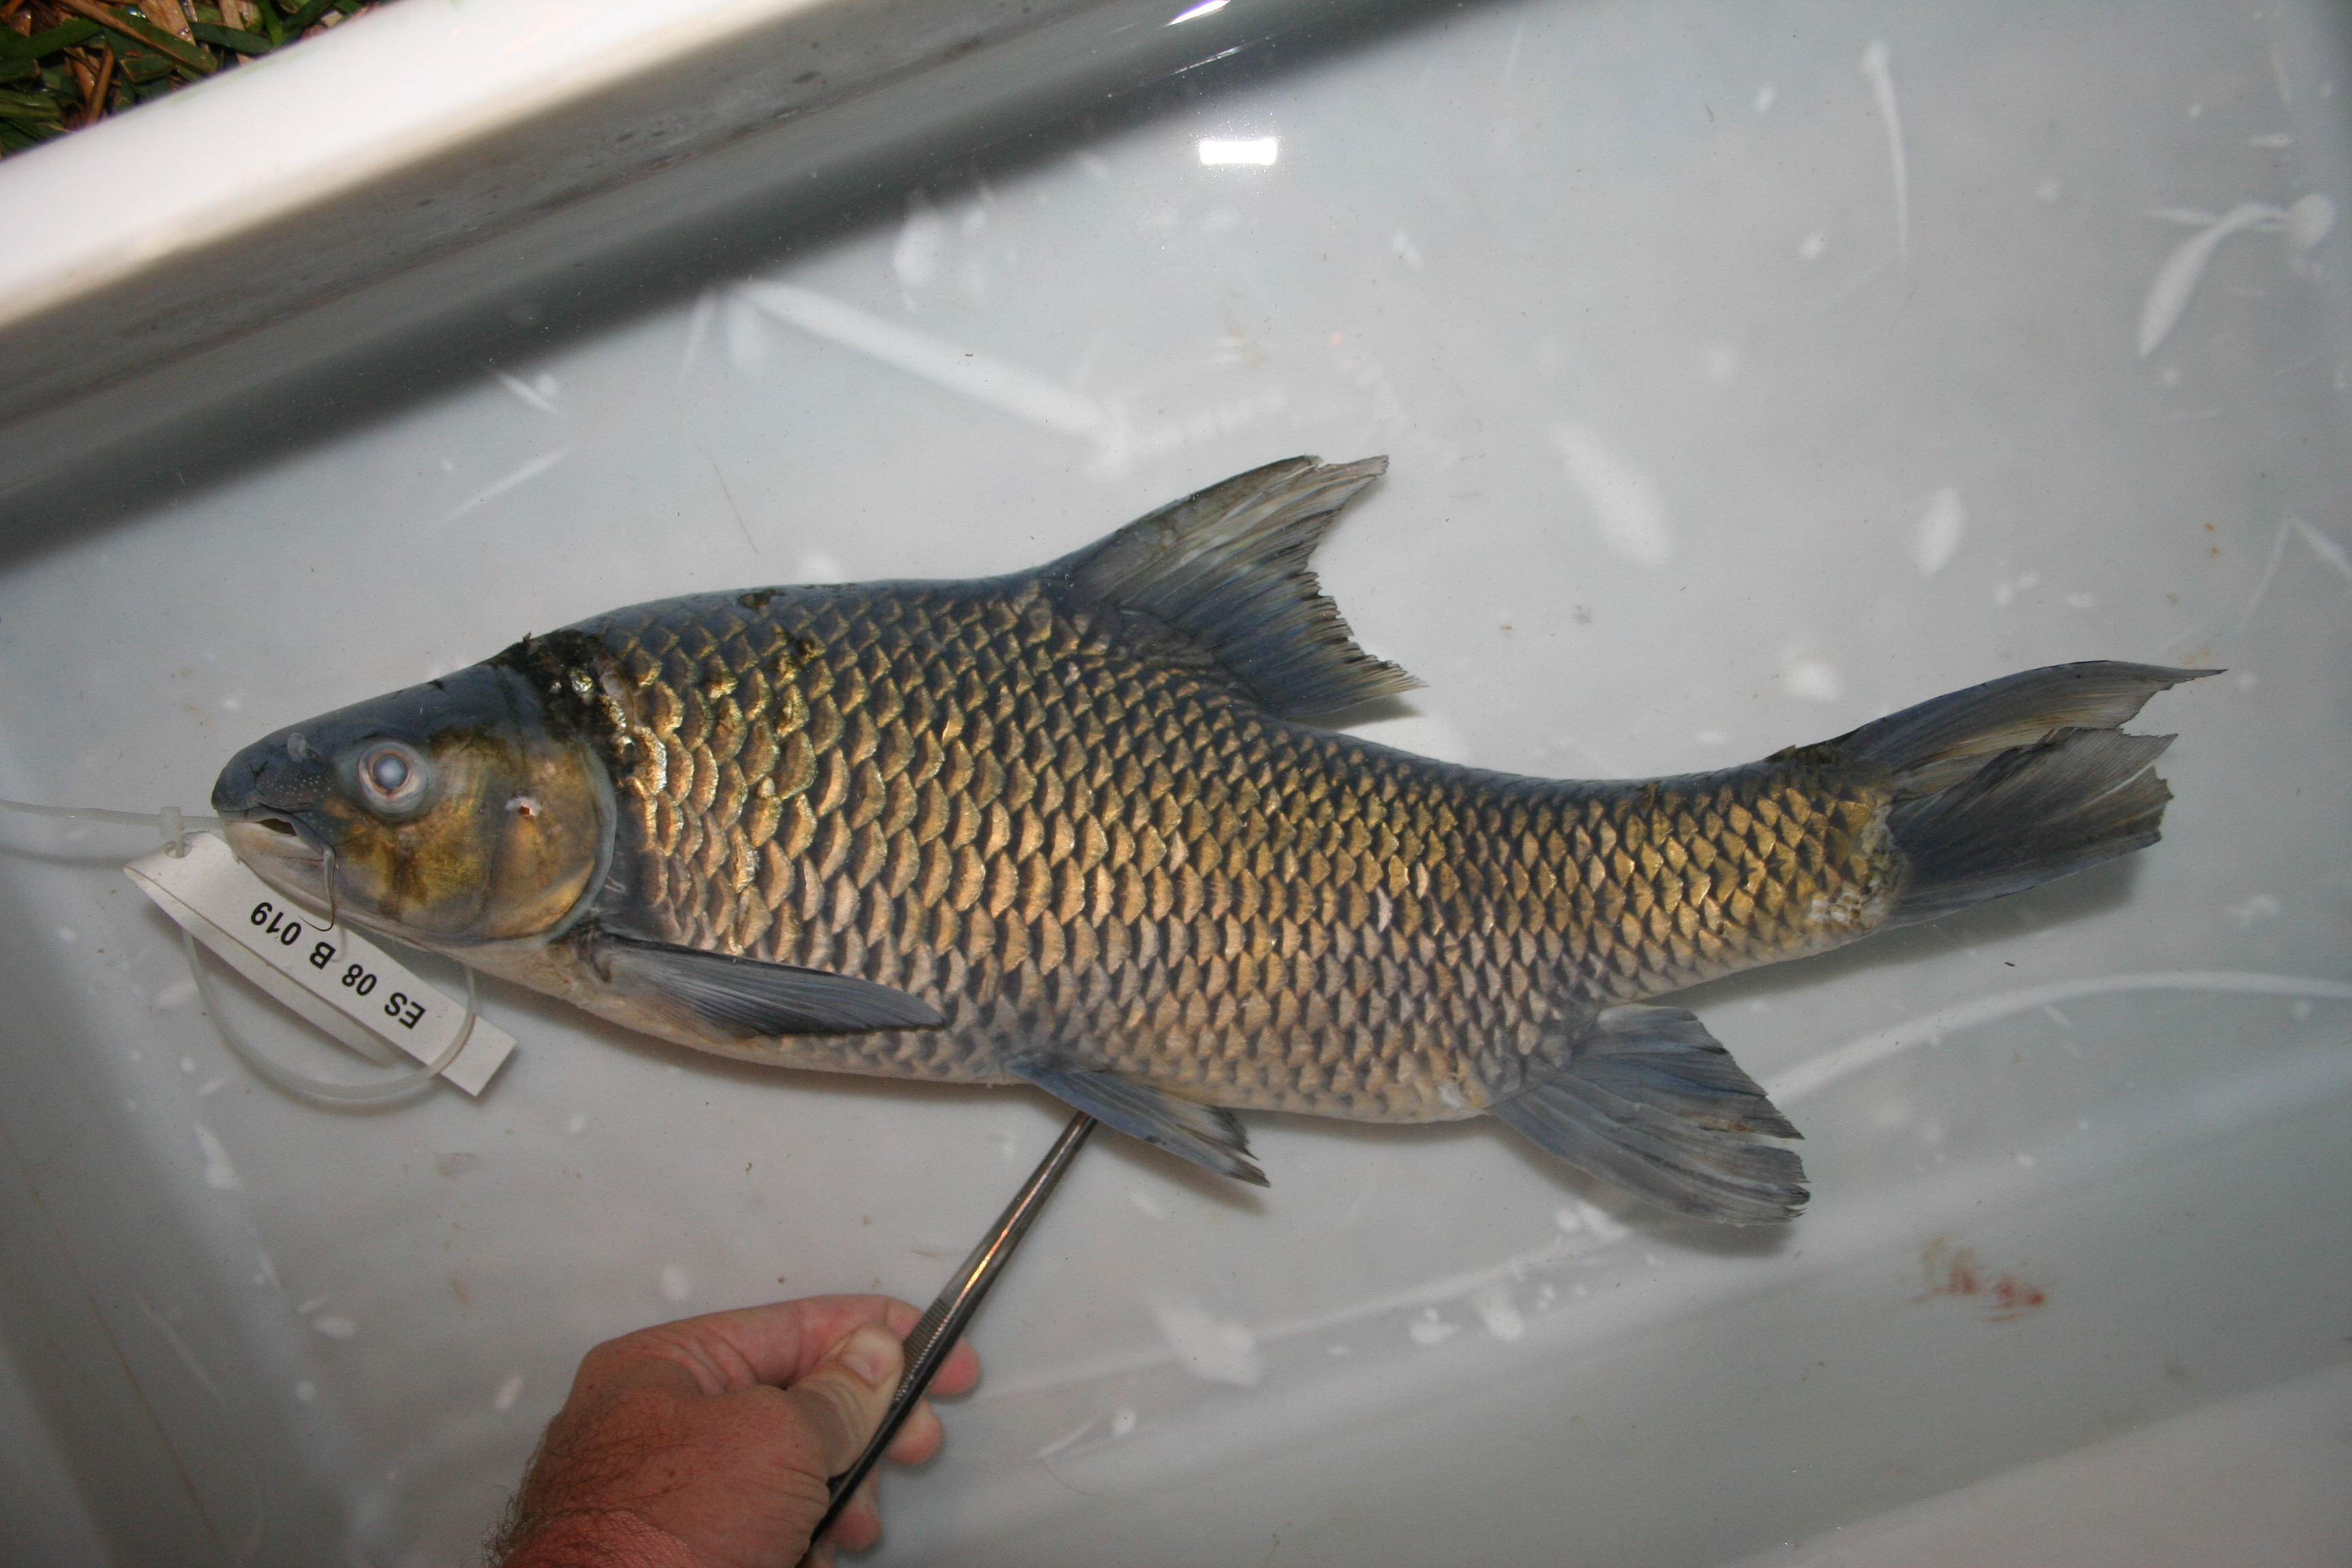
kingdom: Animalia
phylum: Chordata
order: Cypriniformes
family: Cyprinidae
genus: Labeobarbus
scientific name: Labeobarbus
